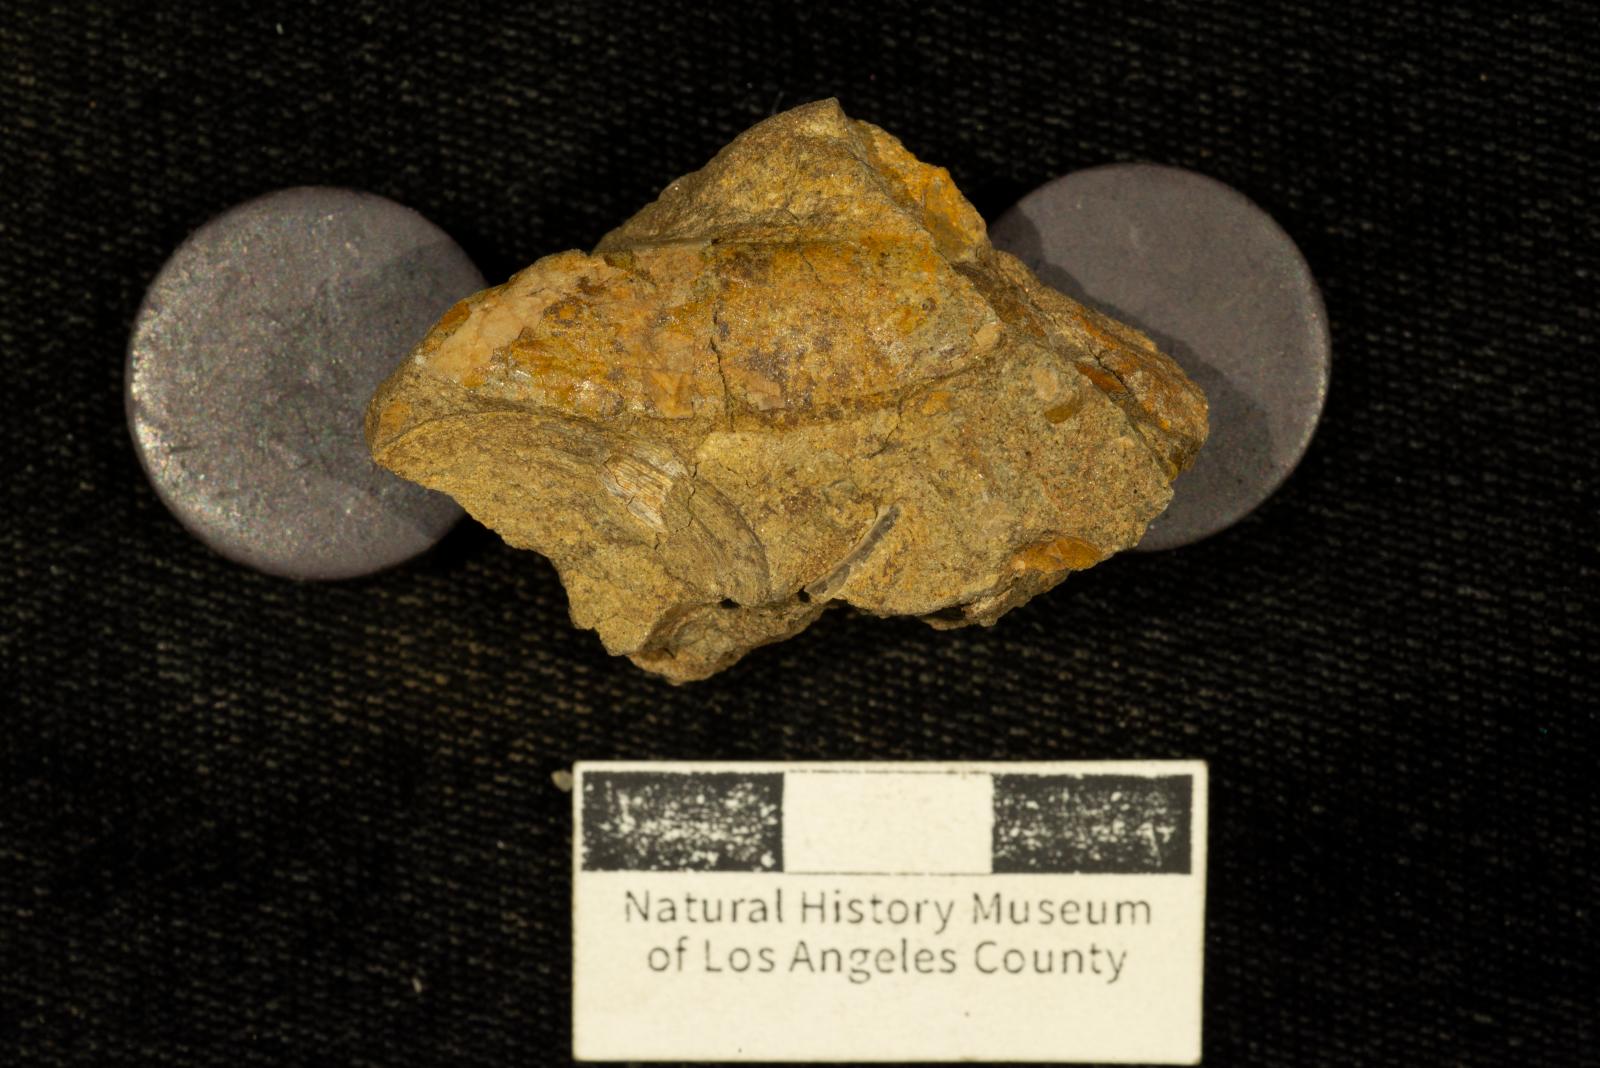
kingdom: Animalia
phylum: Mollusca
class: Bivalvia
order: Cardiida
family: Icanotiidae
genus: Icanotia
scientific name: Icanotia californica
